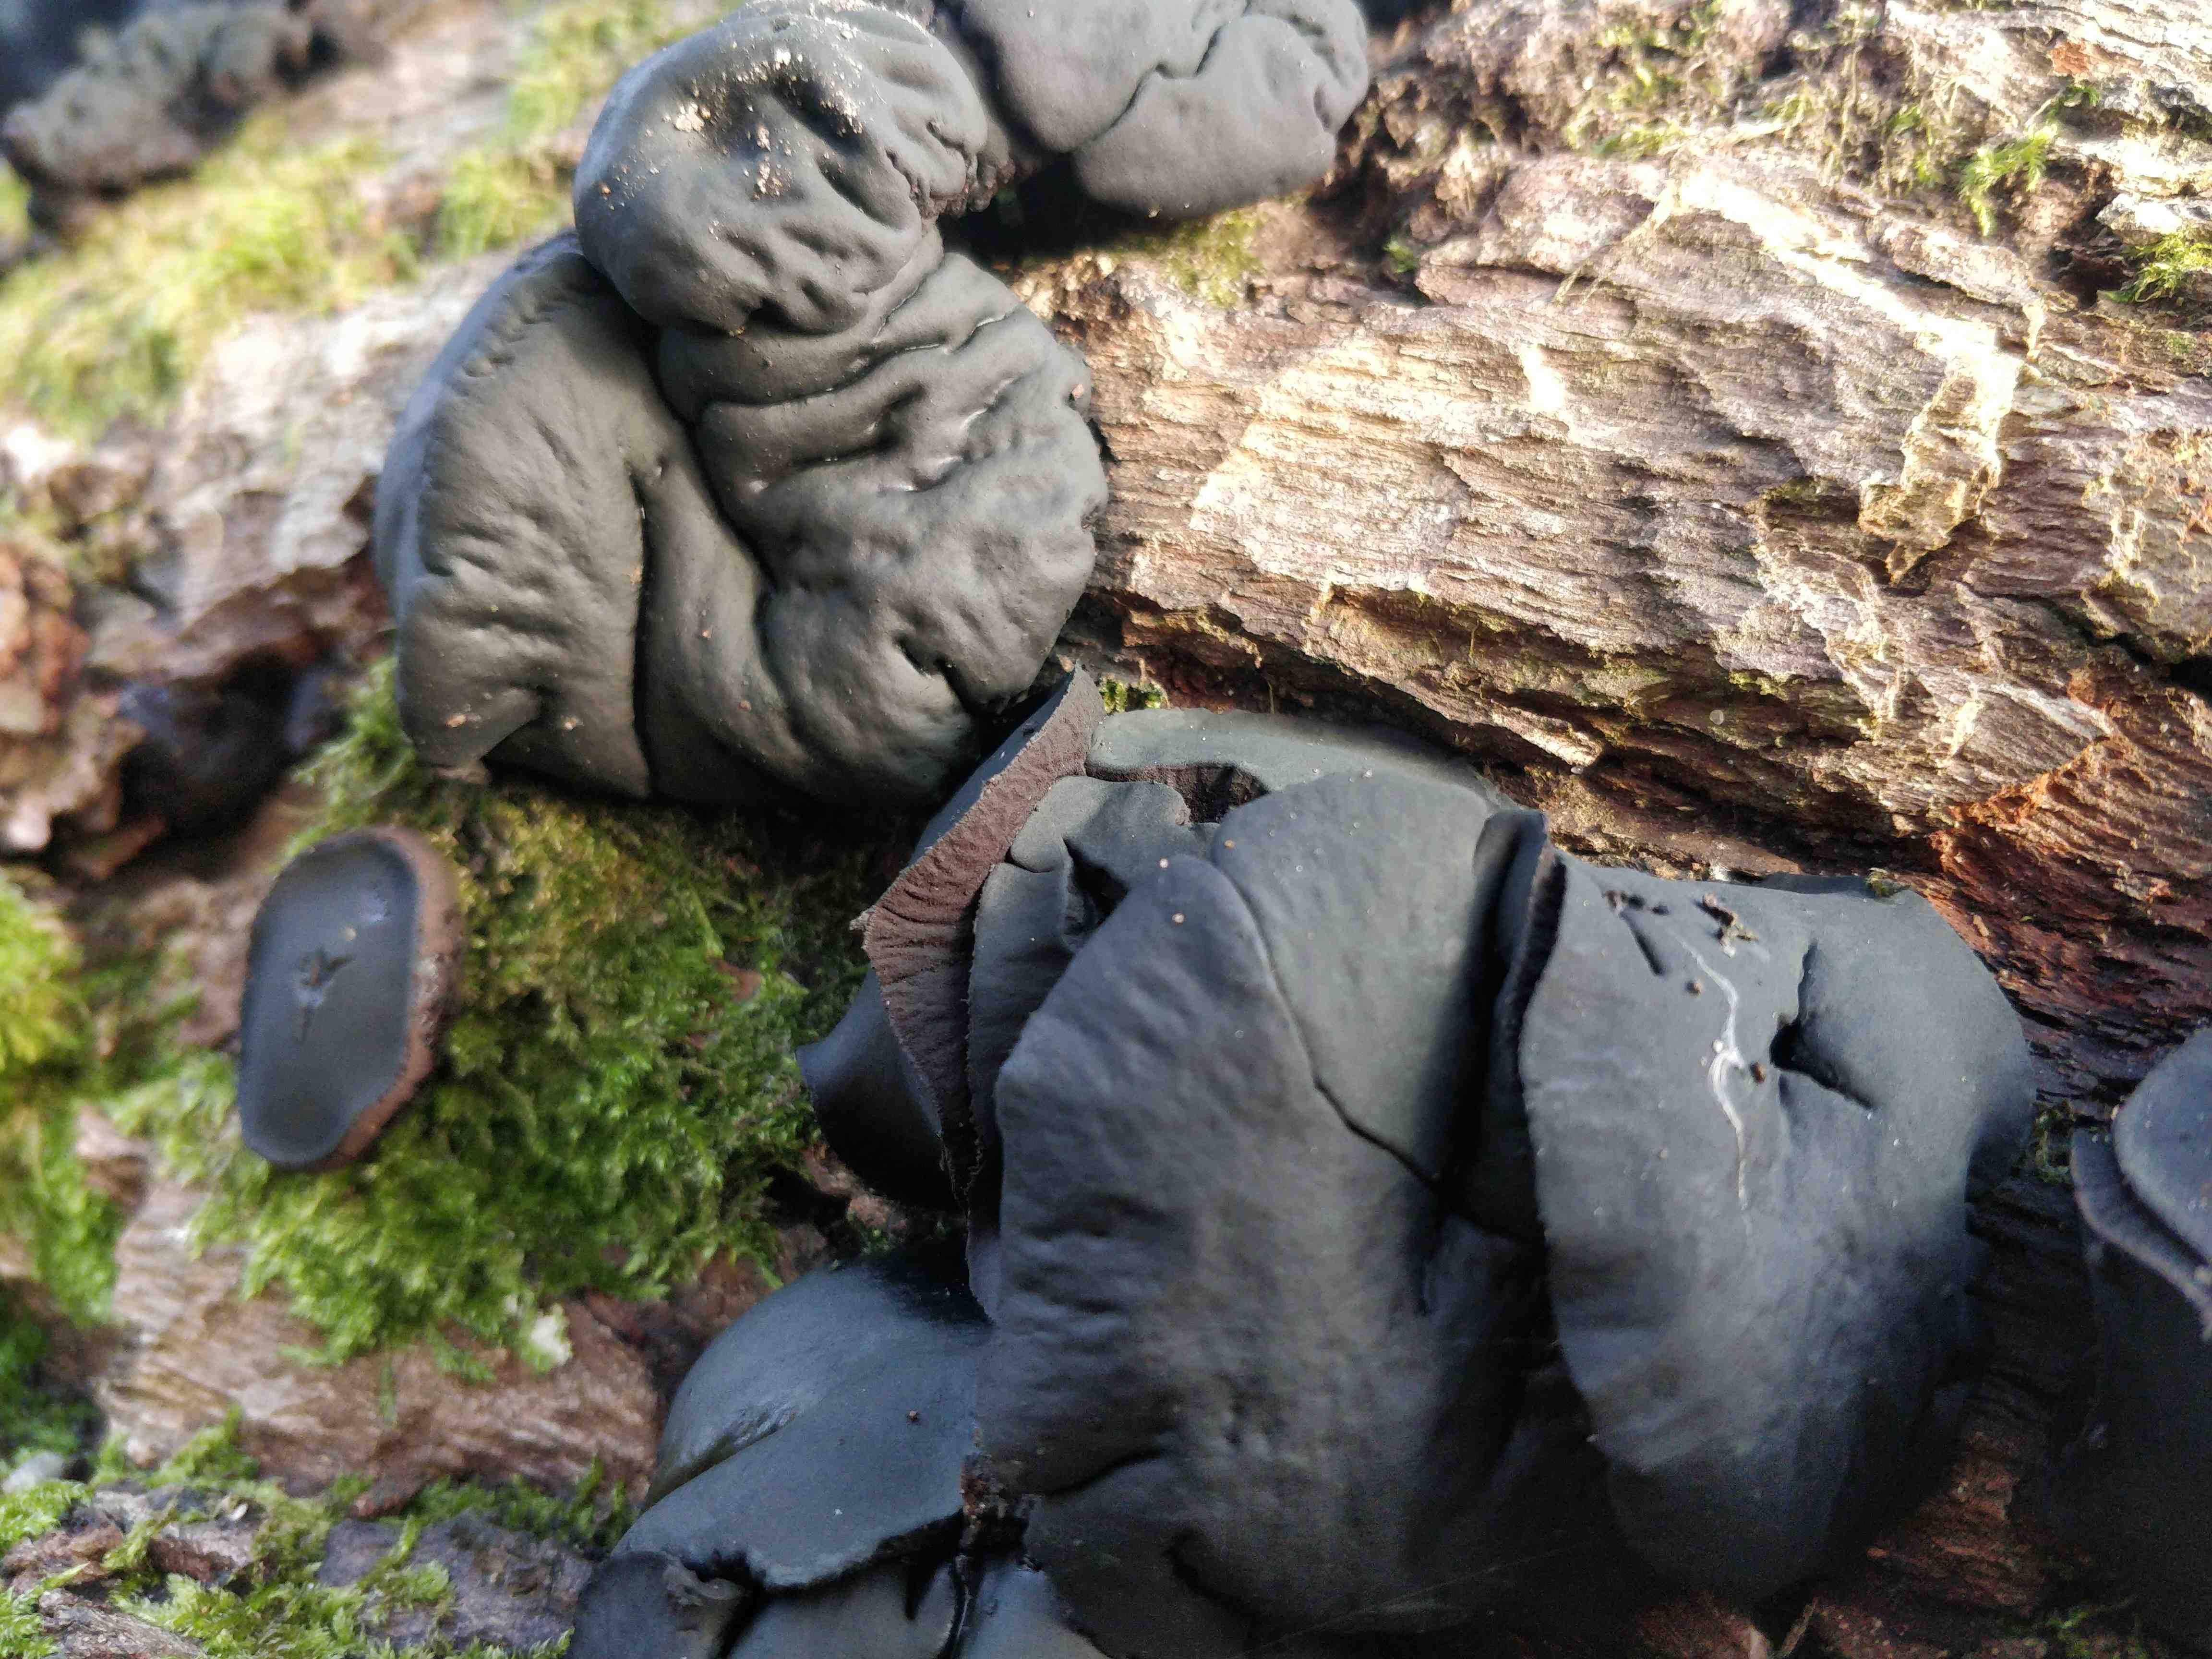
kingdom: Fungi
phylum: Ascomycota
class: Leotiomycetes
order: Phacidiales
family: Phacidiaceae
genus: Bulgaria
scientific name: Bulgaria inquinans
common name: afsmittende topsvamp
